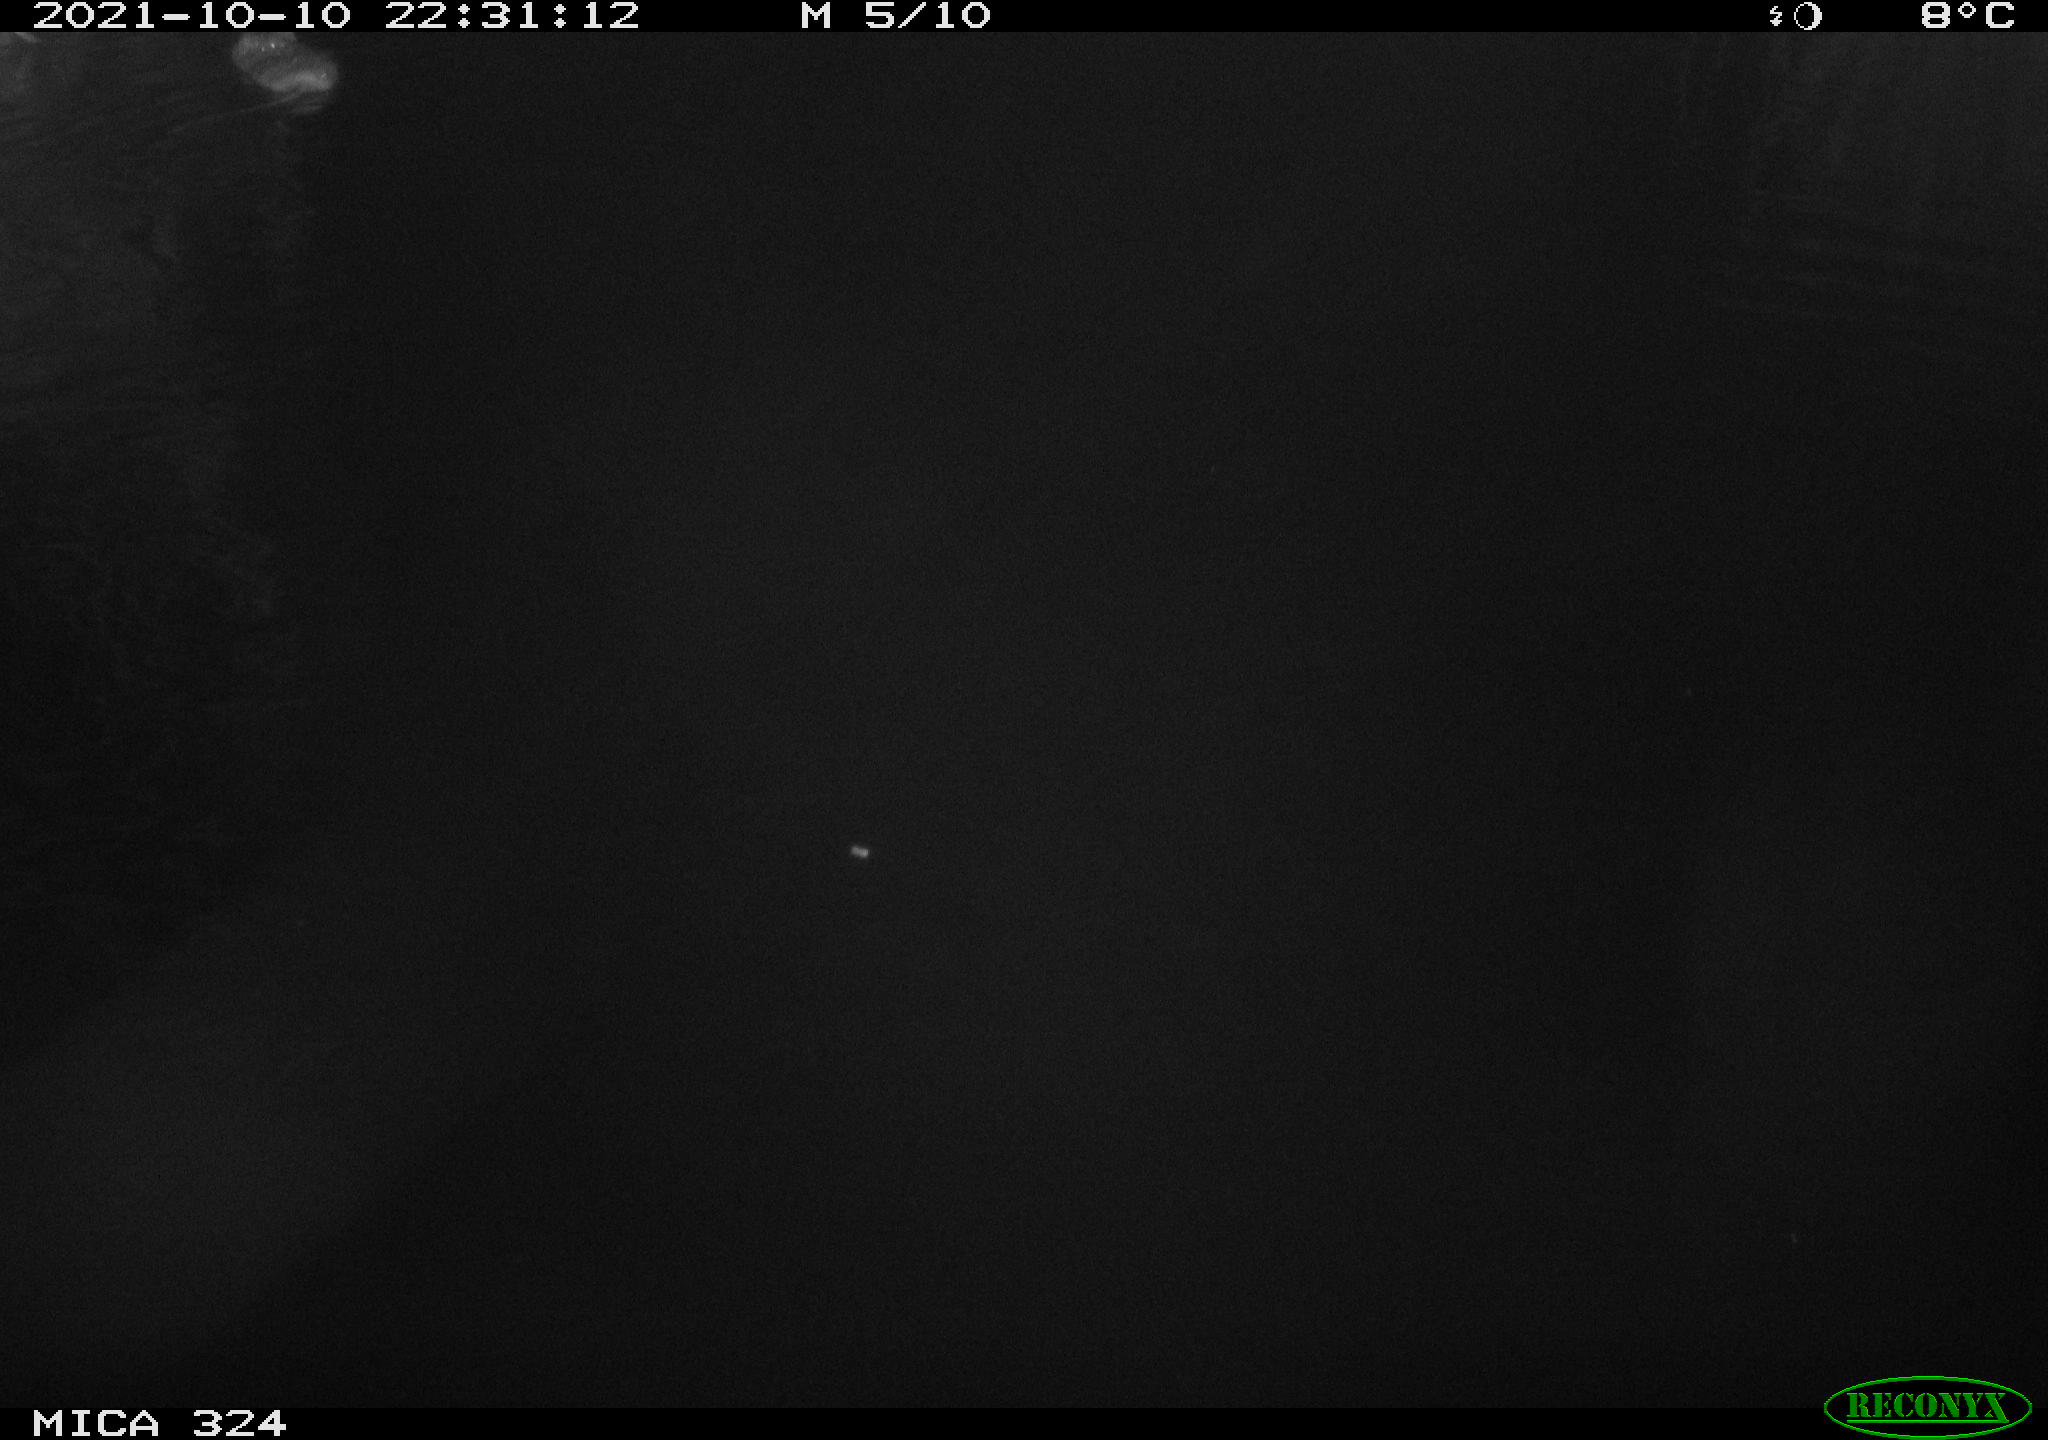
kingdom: Animalia
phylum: Chordata
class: Mammalia
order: Rodentia
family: Cricetidae
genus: Ondatra
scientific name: Ondatra zibethicus
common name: Muskrat
